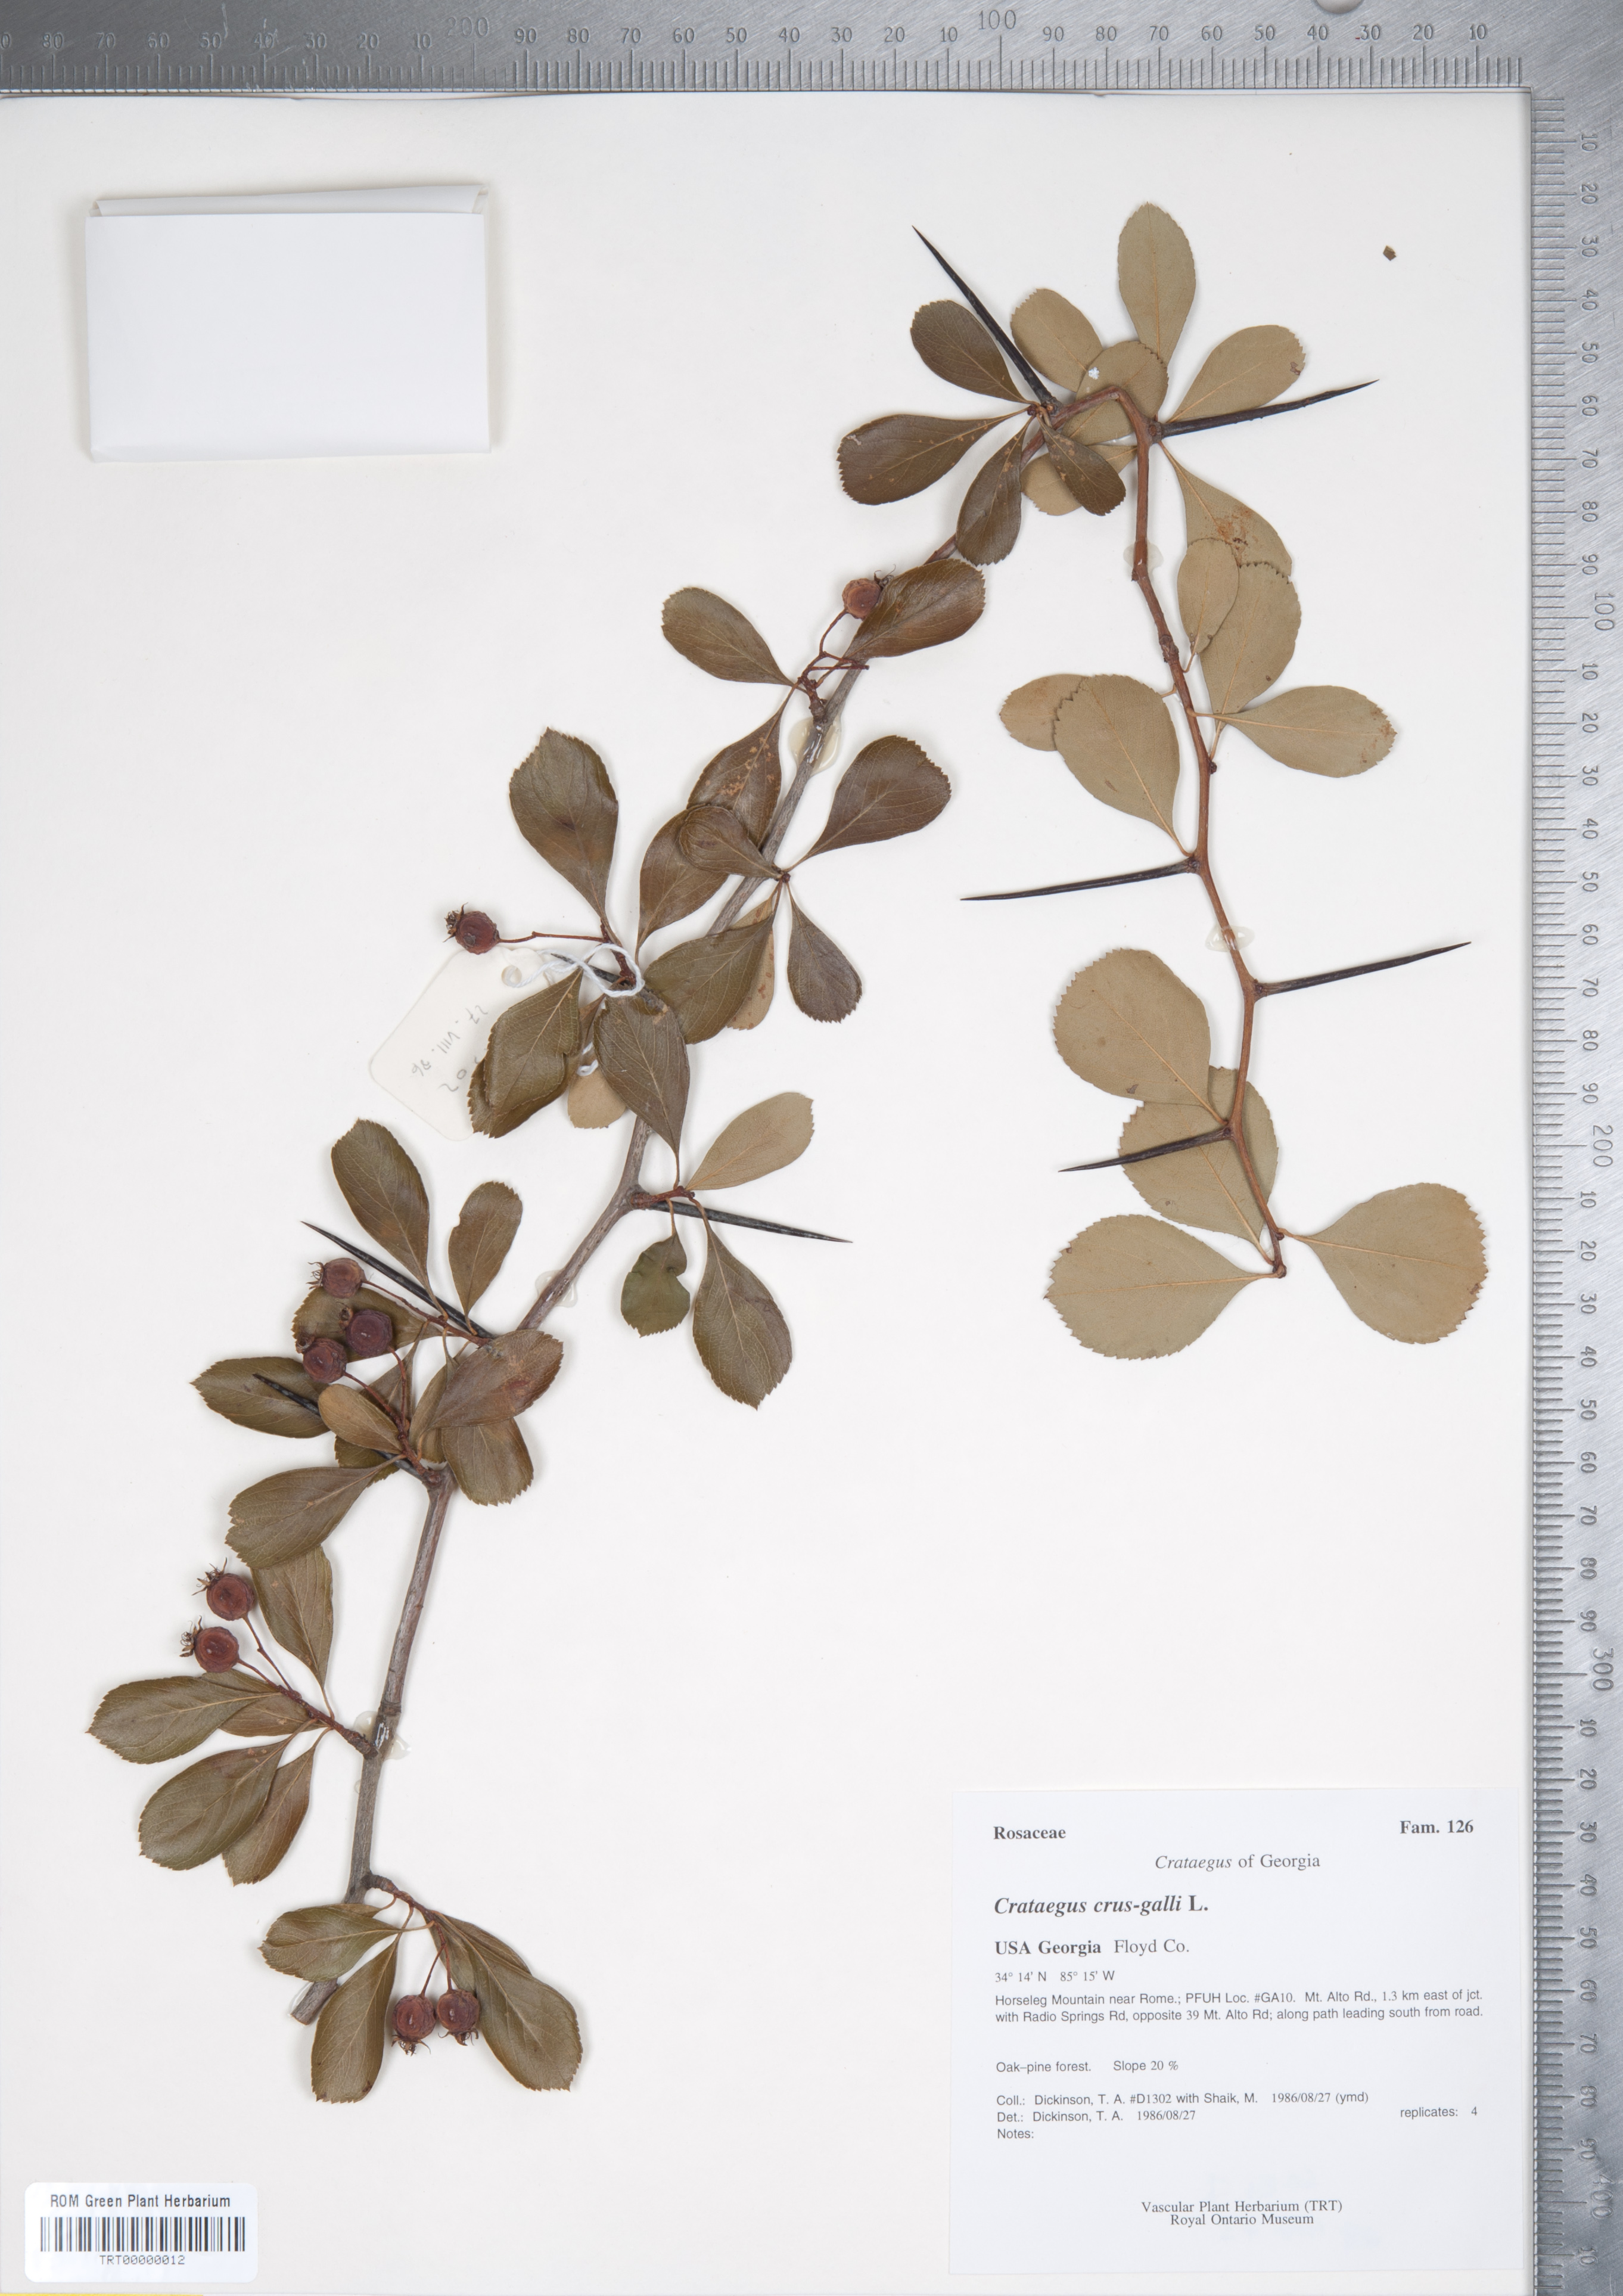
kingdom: Plantae
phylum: Tracheophyta
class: Magnoliopsida
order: Rosales
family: Rosaceae
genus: Crataegus
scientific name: Crataegus crus-galli
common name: Cockspurthorn
